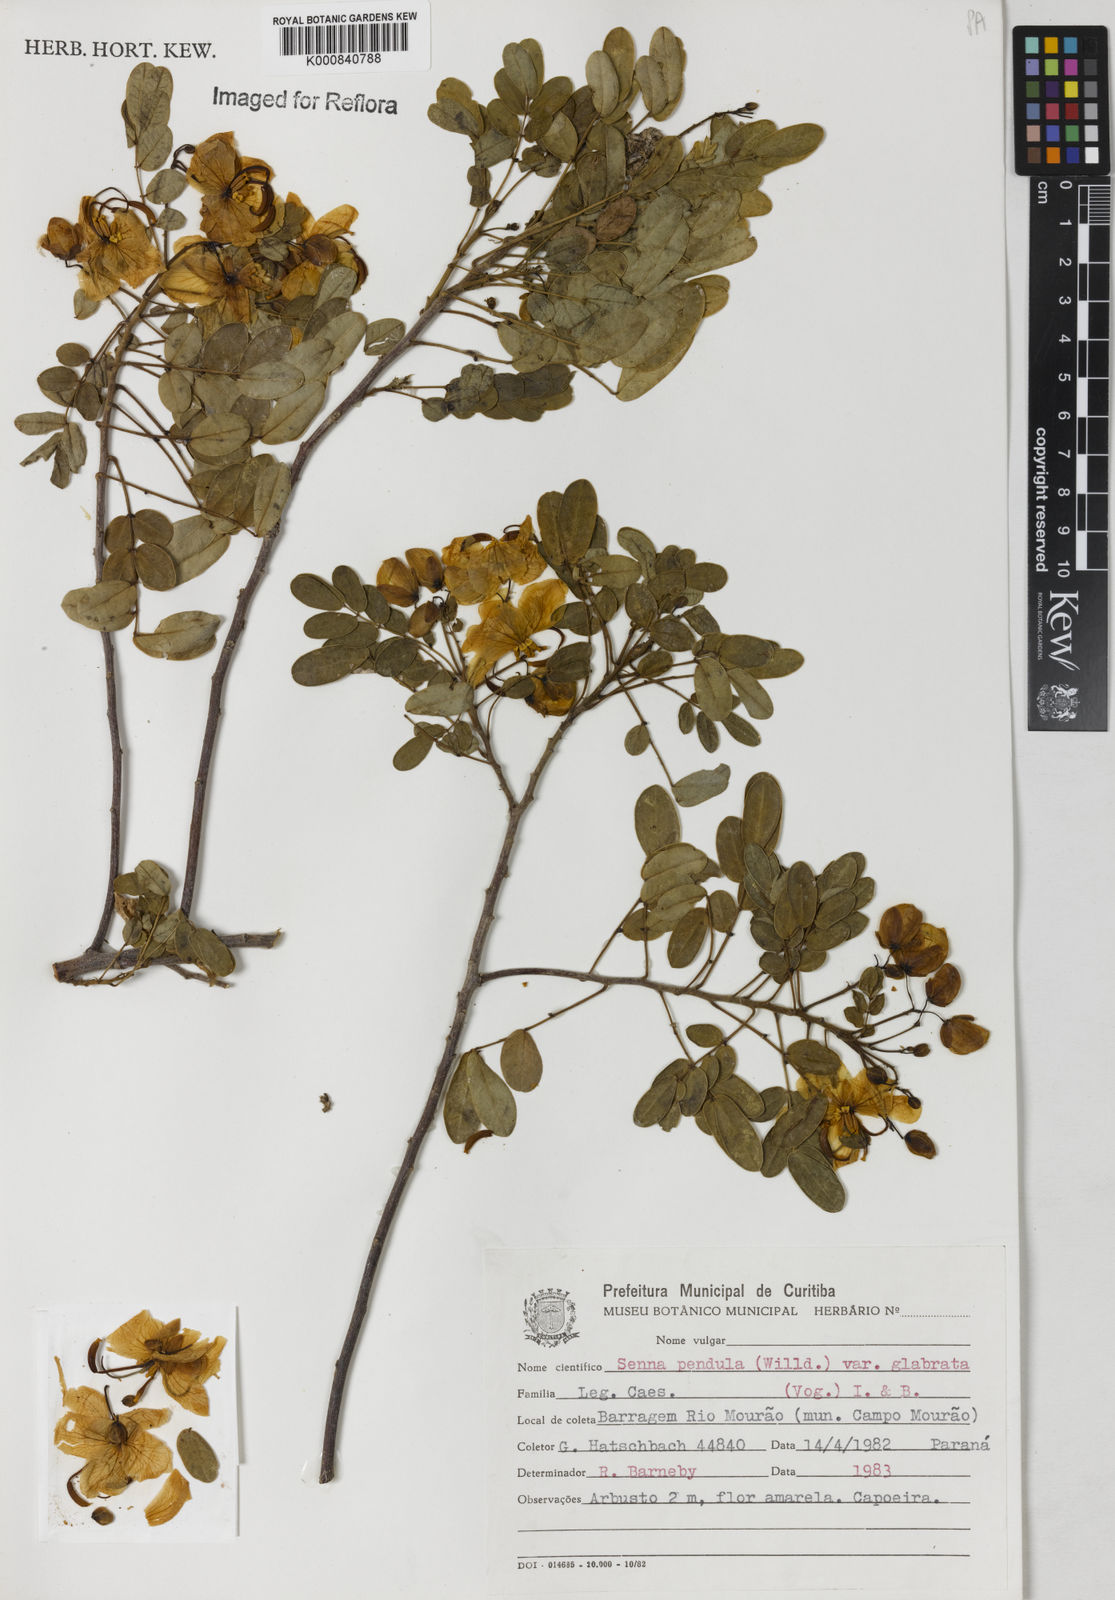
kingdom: Plantae
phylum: Tracheophyta
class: Magnoliopsida
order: Fabales
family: Fabaceae
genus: Senna
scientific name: Senna pendula
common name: Easter cassia
